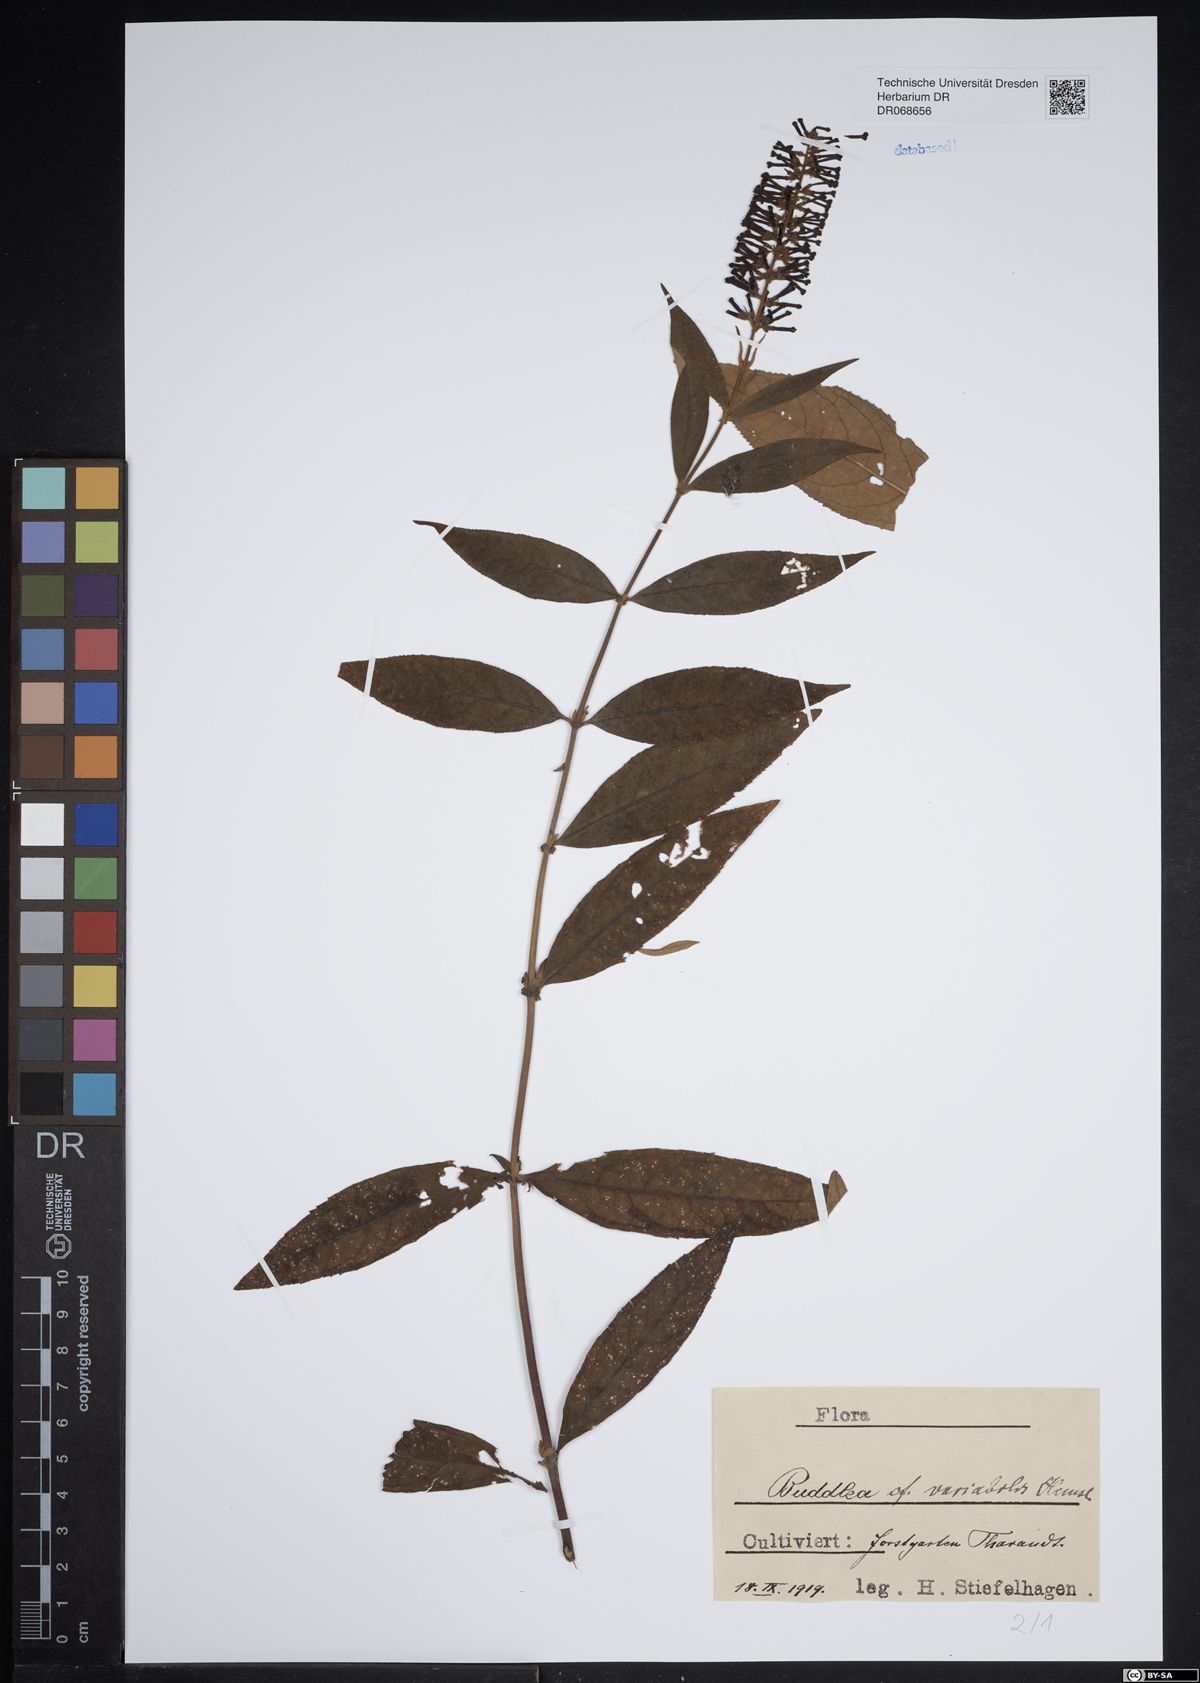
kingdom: Plantae
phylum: Tracheophyta
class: Magnoliopsida
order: Lamiales
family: Scrophulariaceae
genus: Buddleja
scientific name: Buddleja davidii
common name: Butterfly-bush
